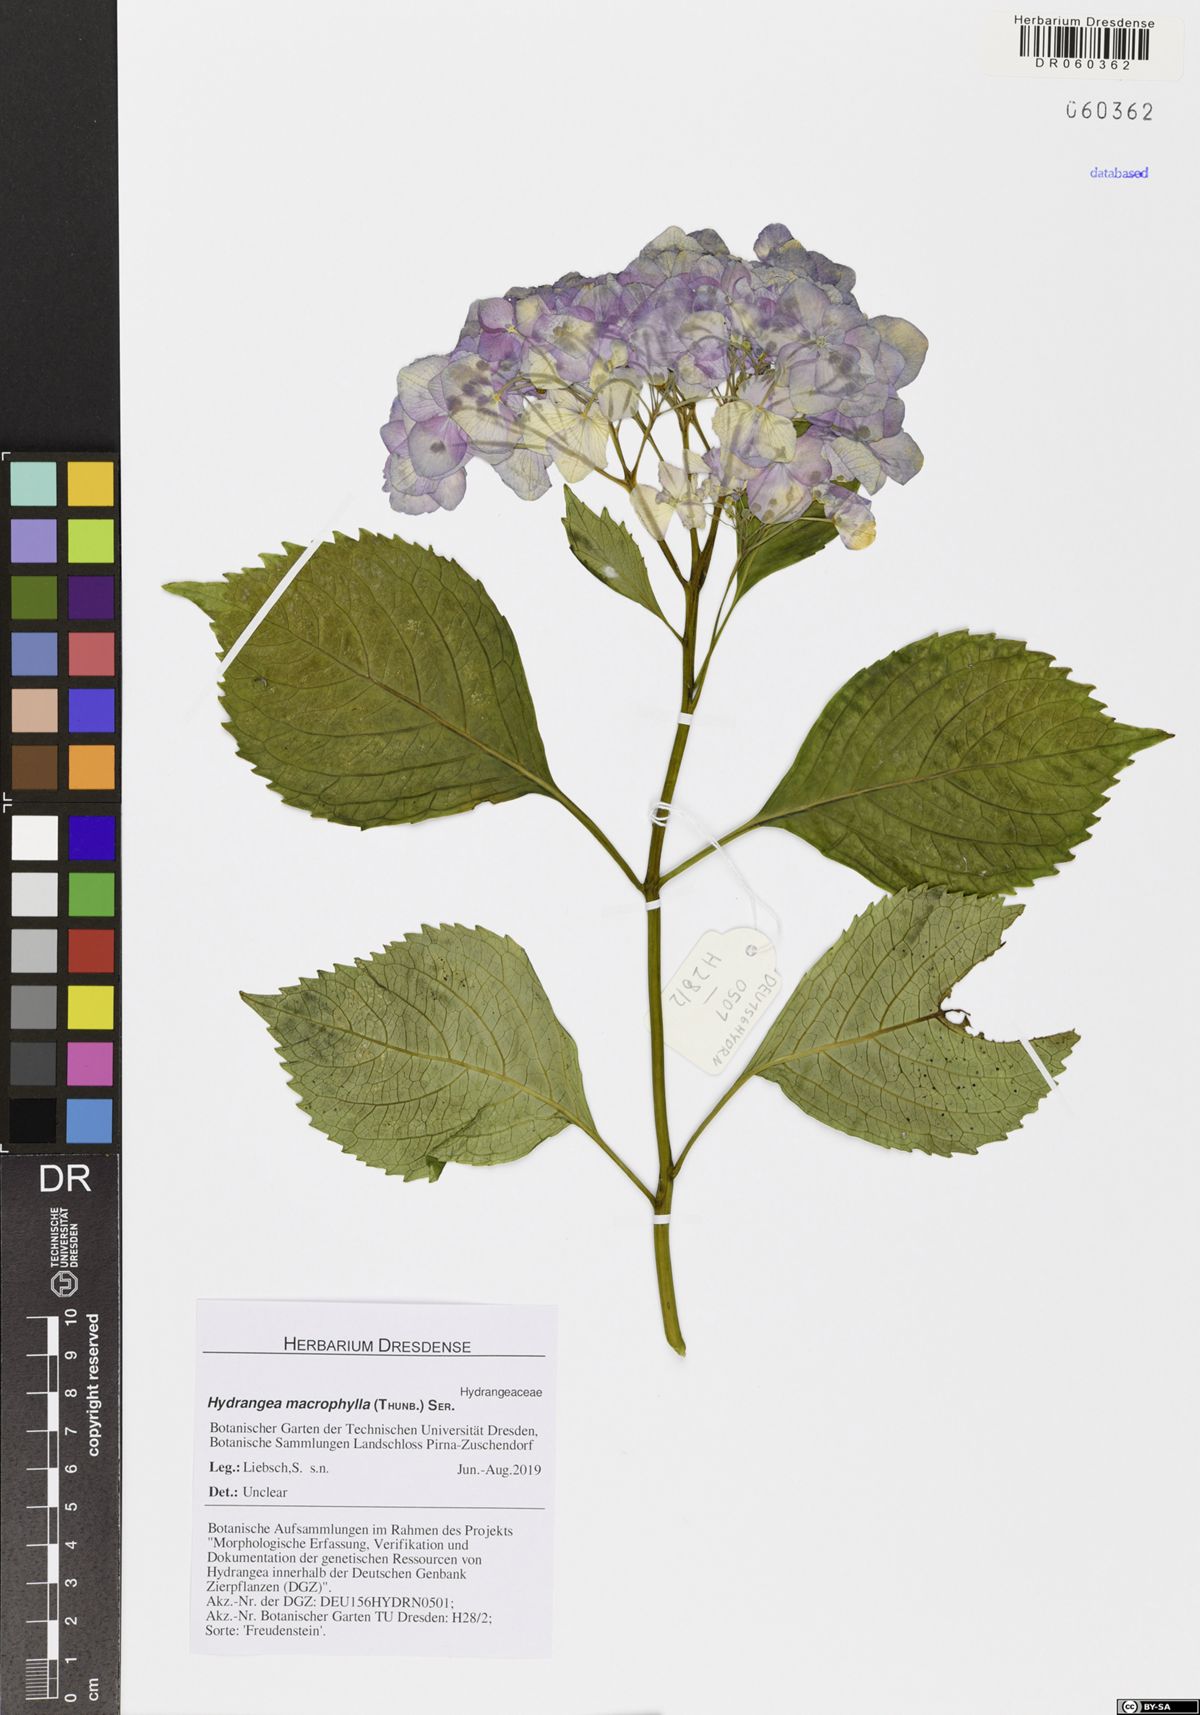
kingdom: Plantae
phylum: Tracheophyta
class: Magnoliopsida
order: Cornales
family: Hydrangeaceae
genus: Hydrangea
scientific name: Hydrangea macrophylla
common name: Hydrangea
